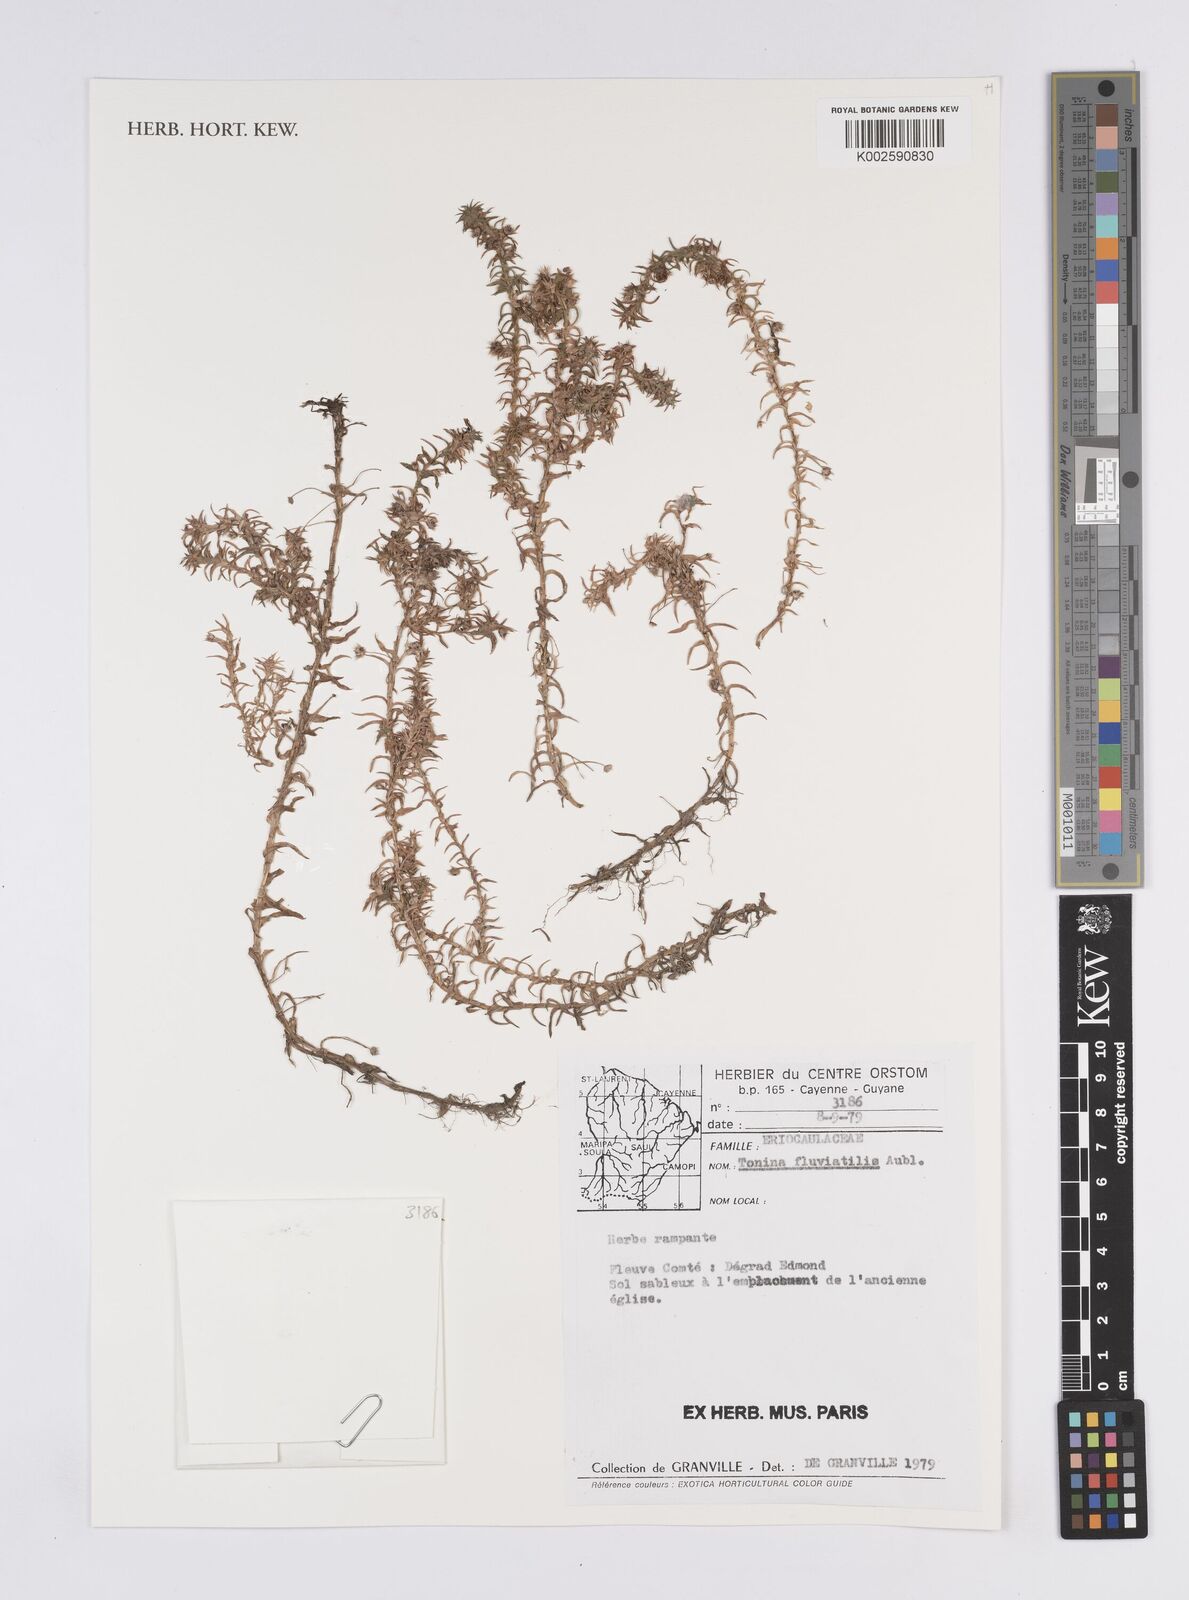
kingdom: Plantae
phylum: Tracheophyta
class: Liliopsida
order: Poales
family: Eriocaulaceae
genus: Paepalanthus
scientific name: Paepalanthus fluviatilis
